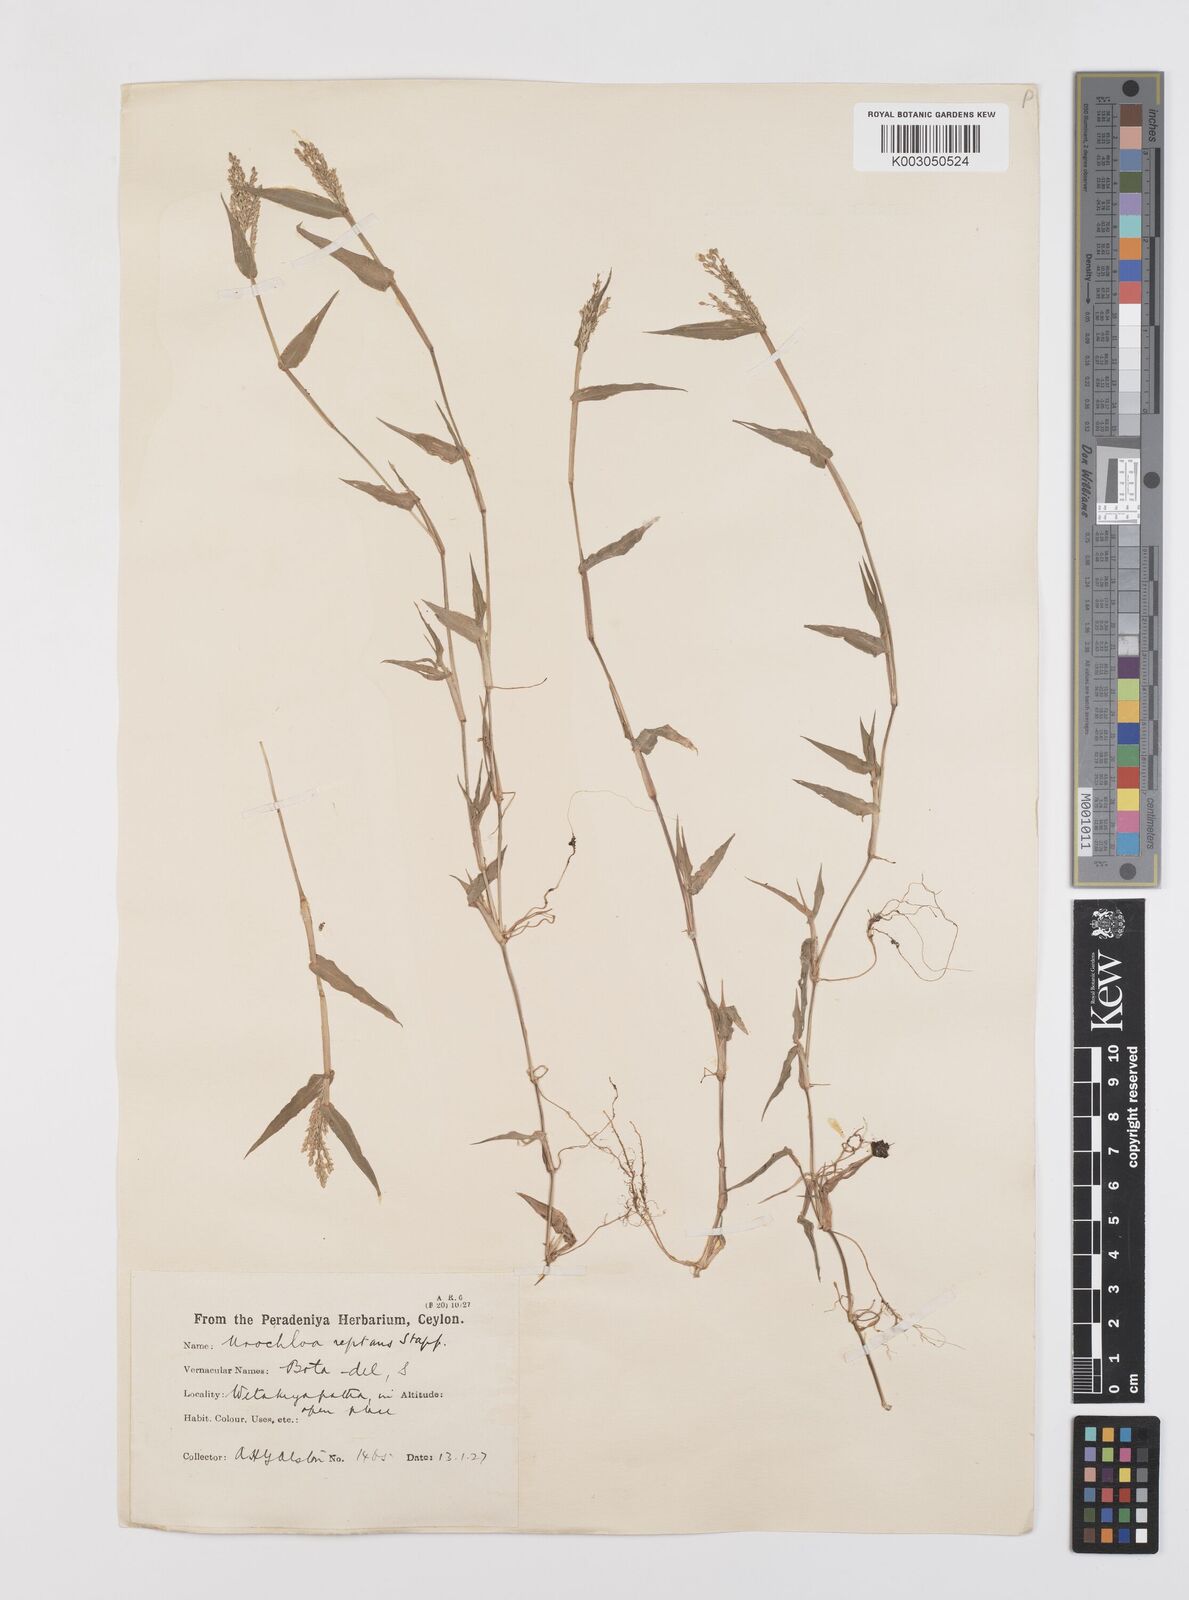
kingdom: Plantae
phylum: Tracheophyta
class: Liliopsida
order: Poales
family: Poaceae
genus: Urochloa
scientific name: Urochloa reptans
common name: Sprawling signalgrass
